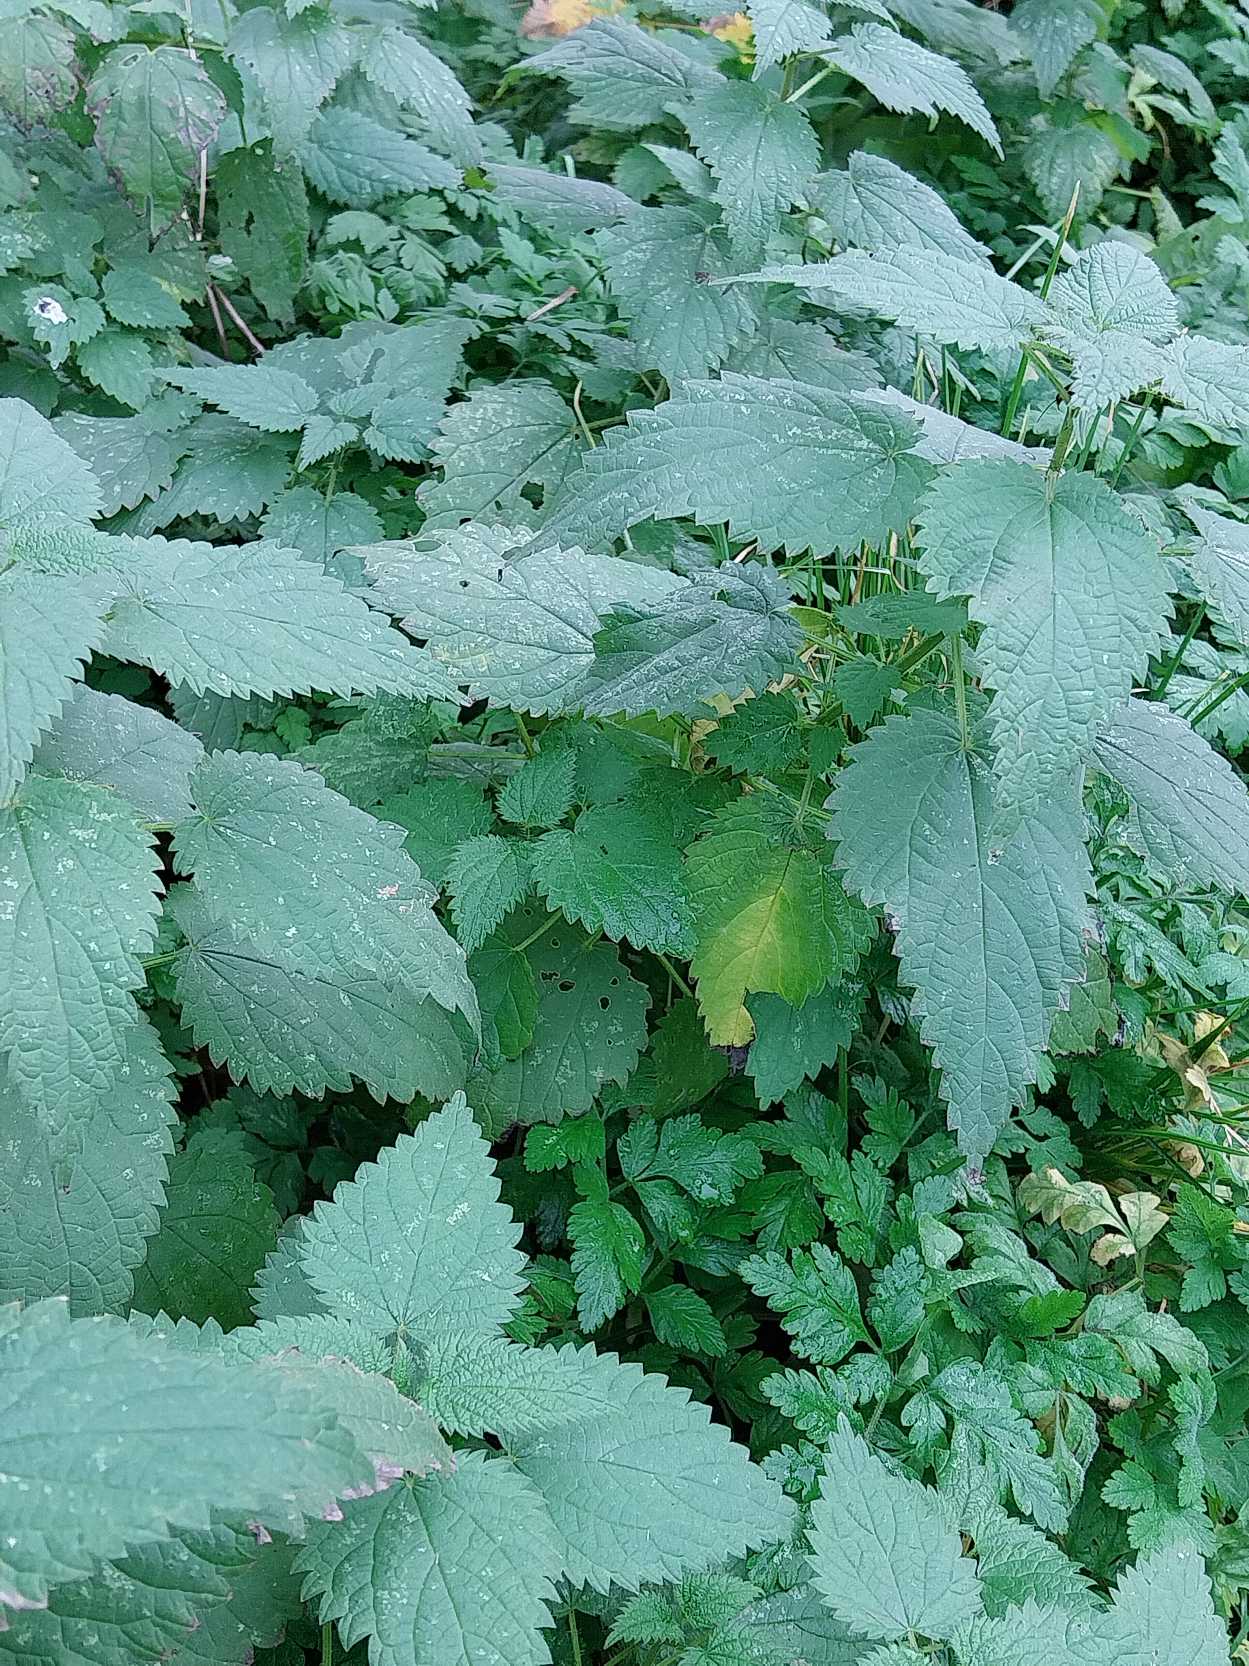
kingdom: Plantae
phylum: Tracheophyta
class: Magnoliopsida
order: Rosales
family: Urticaceae
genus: Urtica
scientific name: Urtica dioica
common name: Stor nælde
